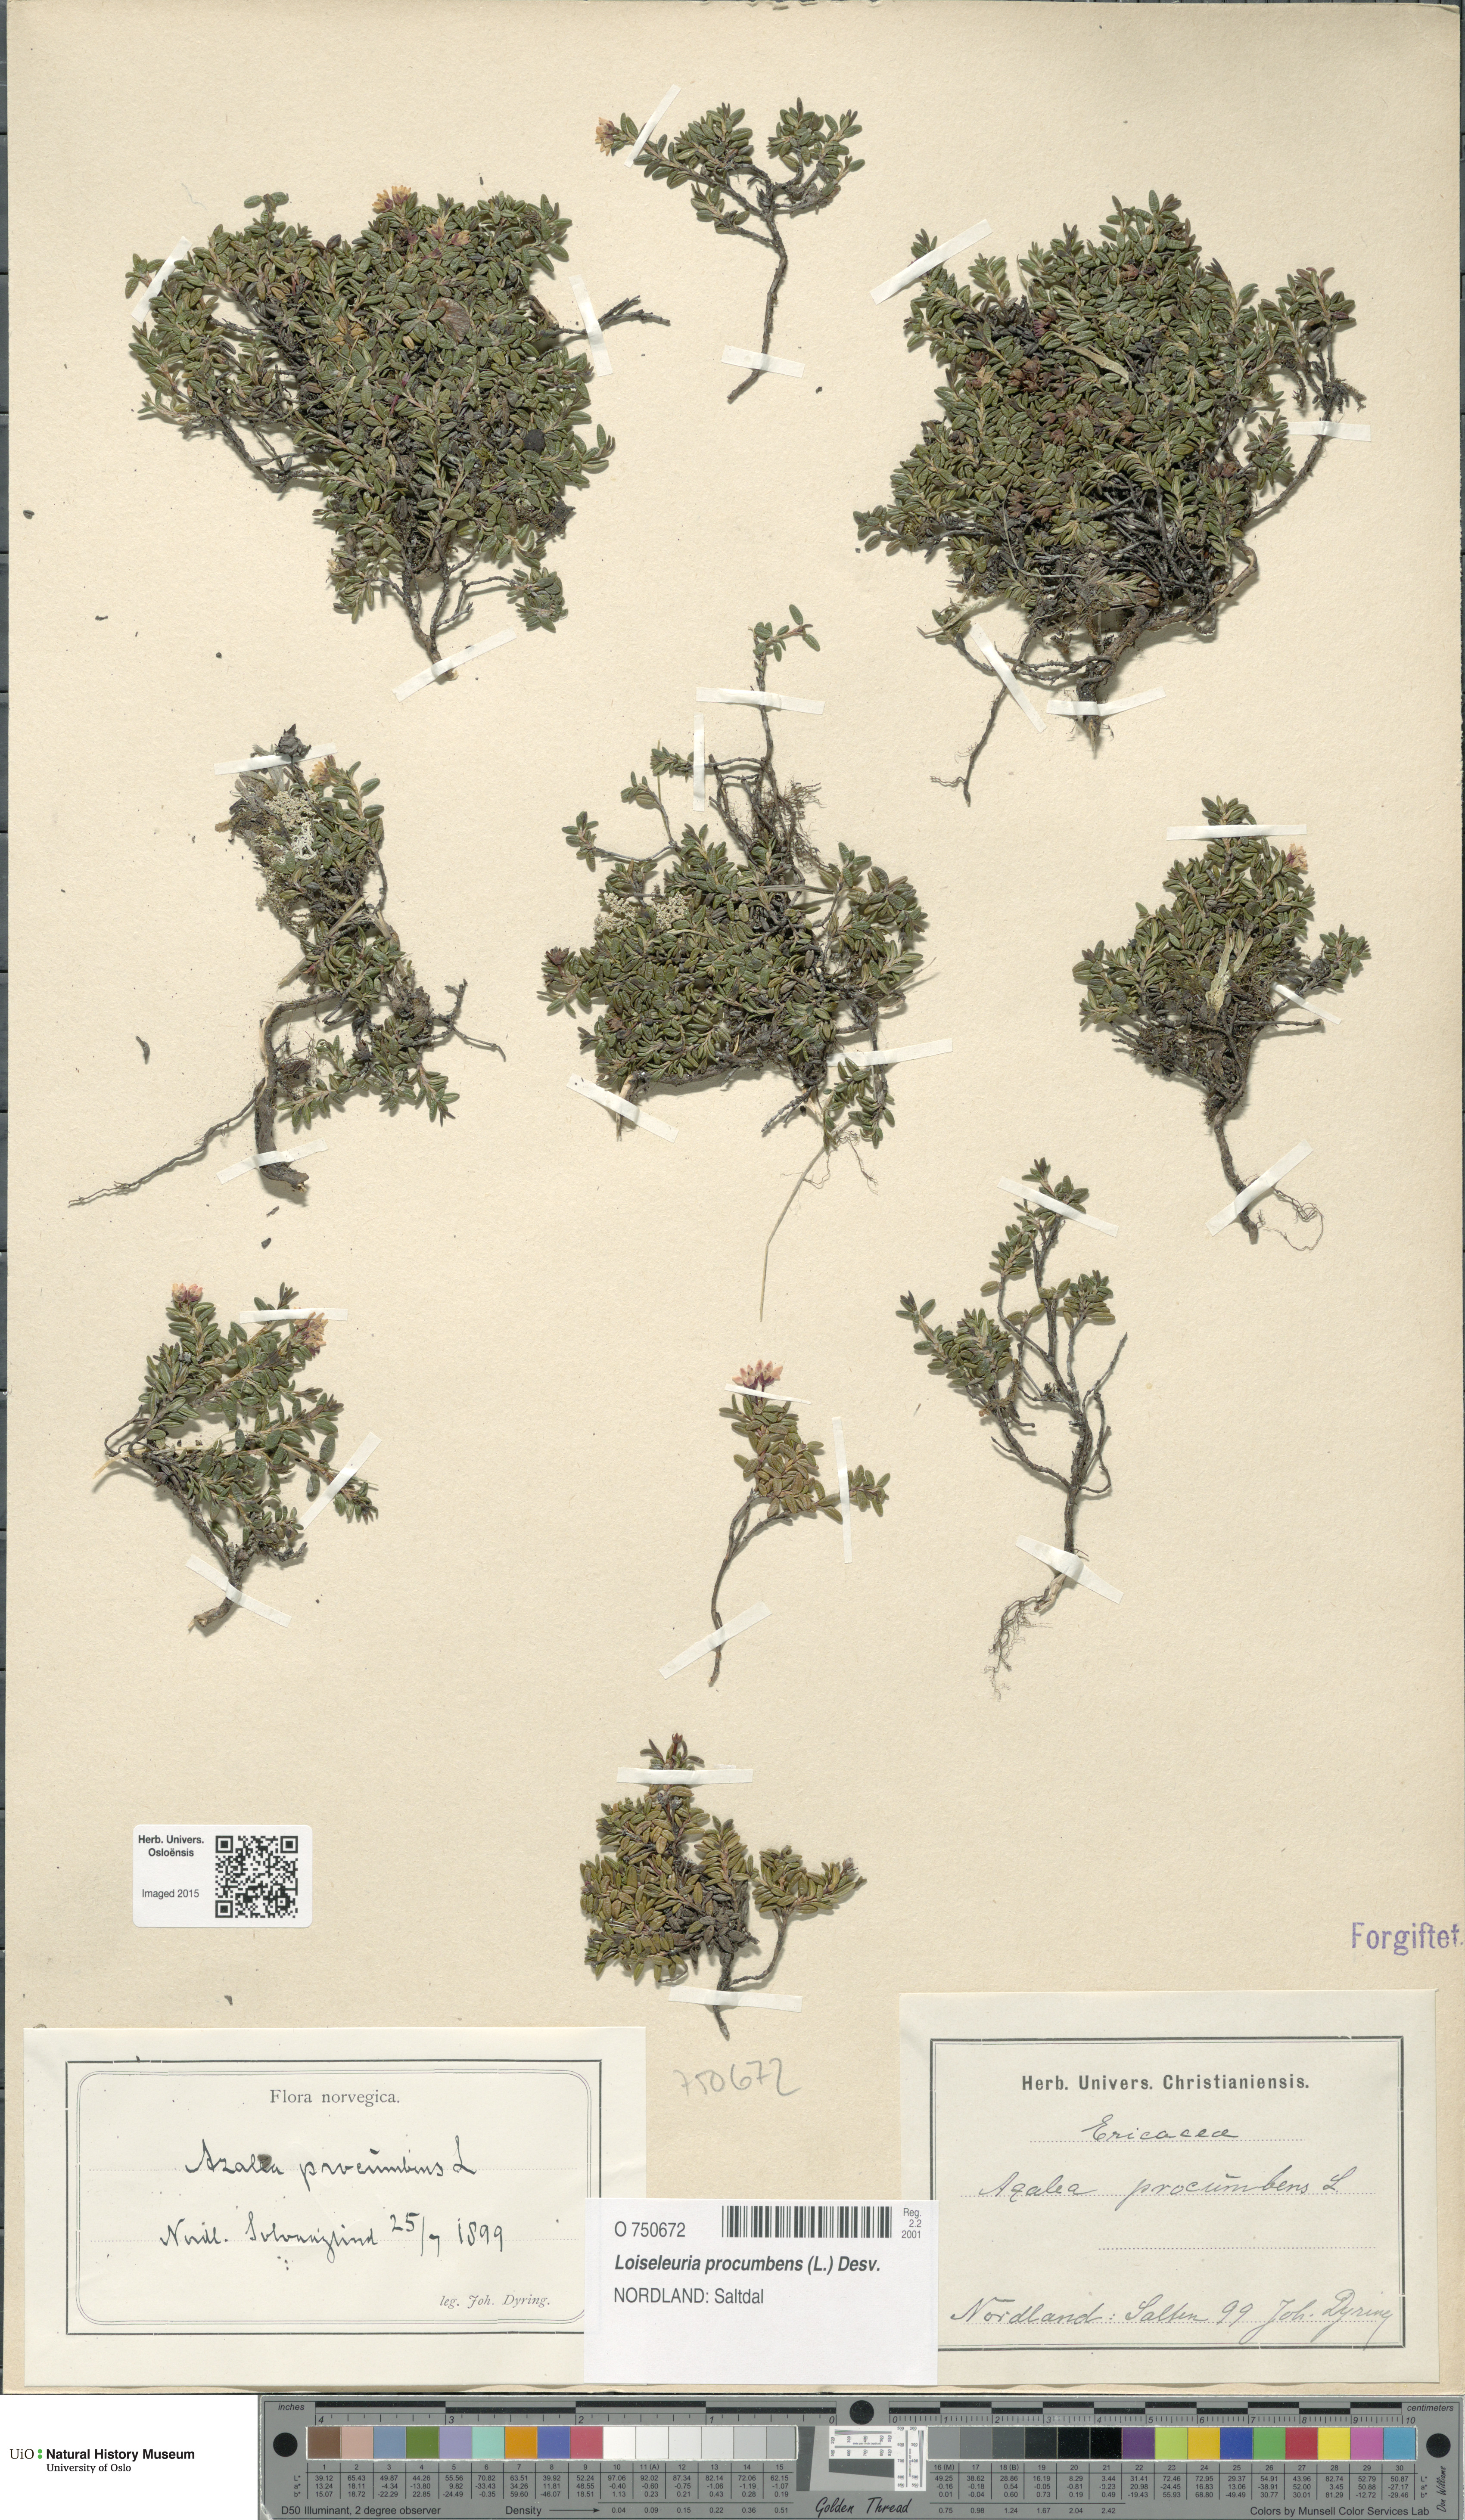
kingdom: Plantae
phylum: Tracheophyta
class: Magnoliopsida
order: Ericales
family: Ericaceae
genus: Kalmia
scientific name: Kalmia procumbens
